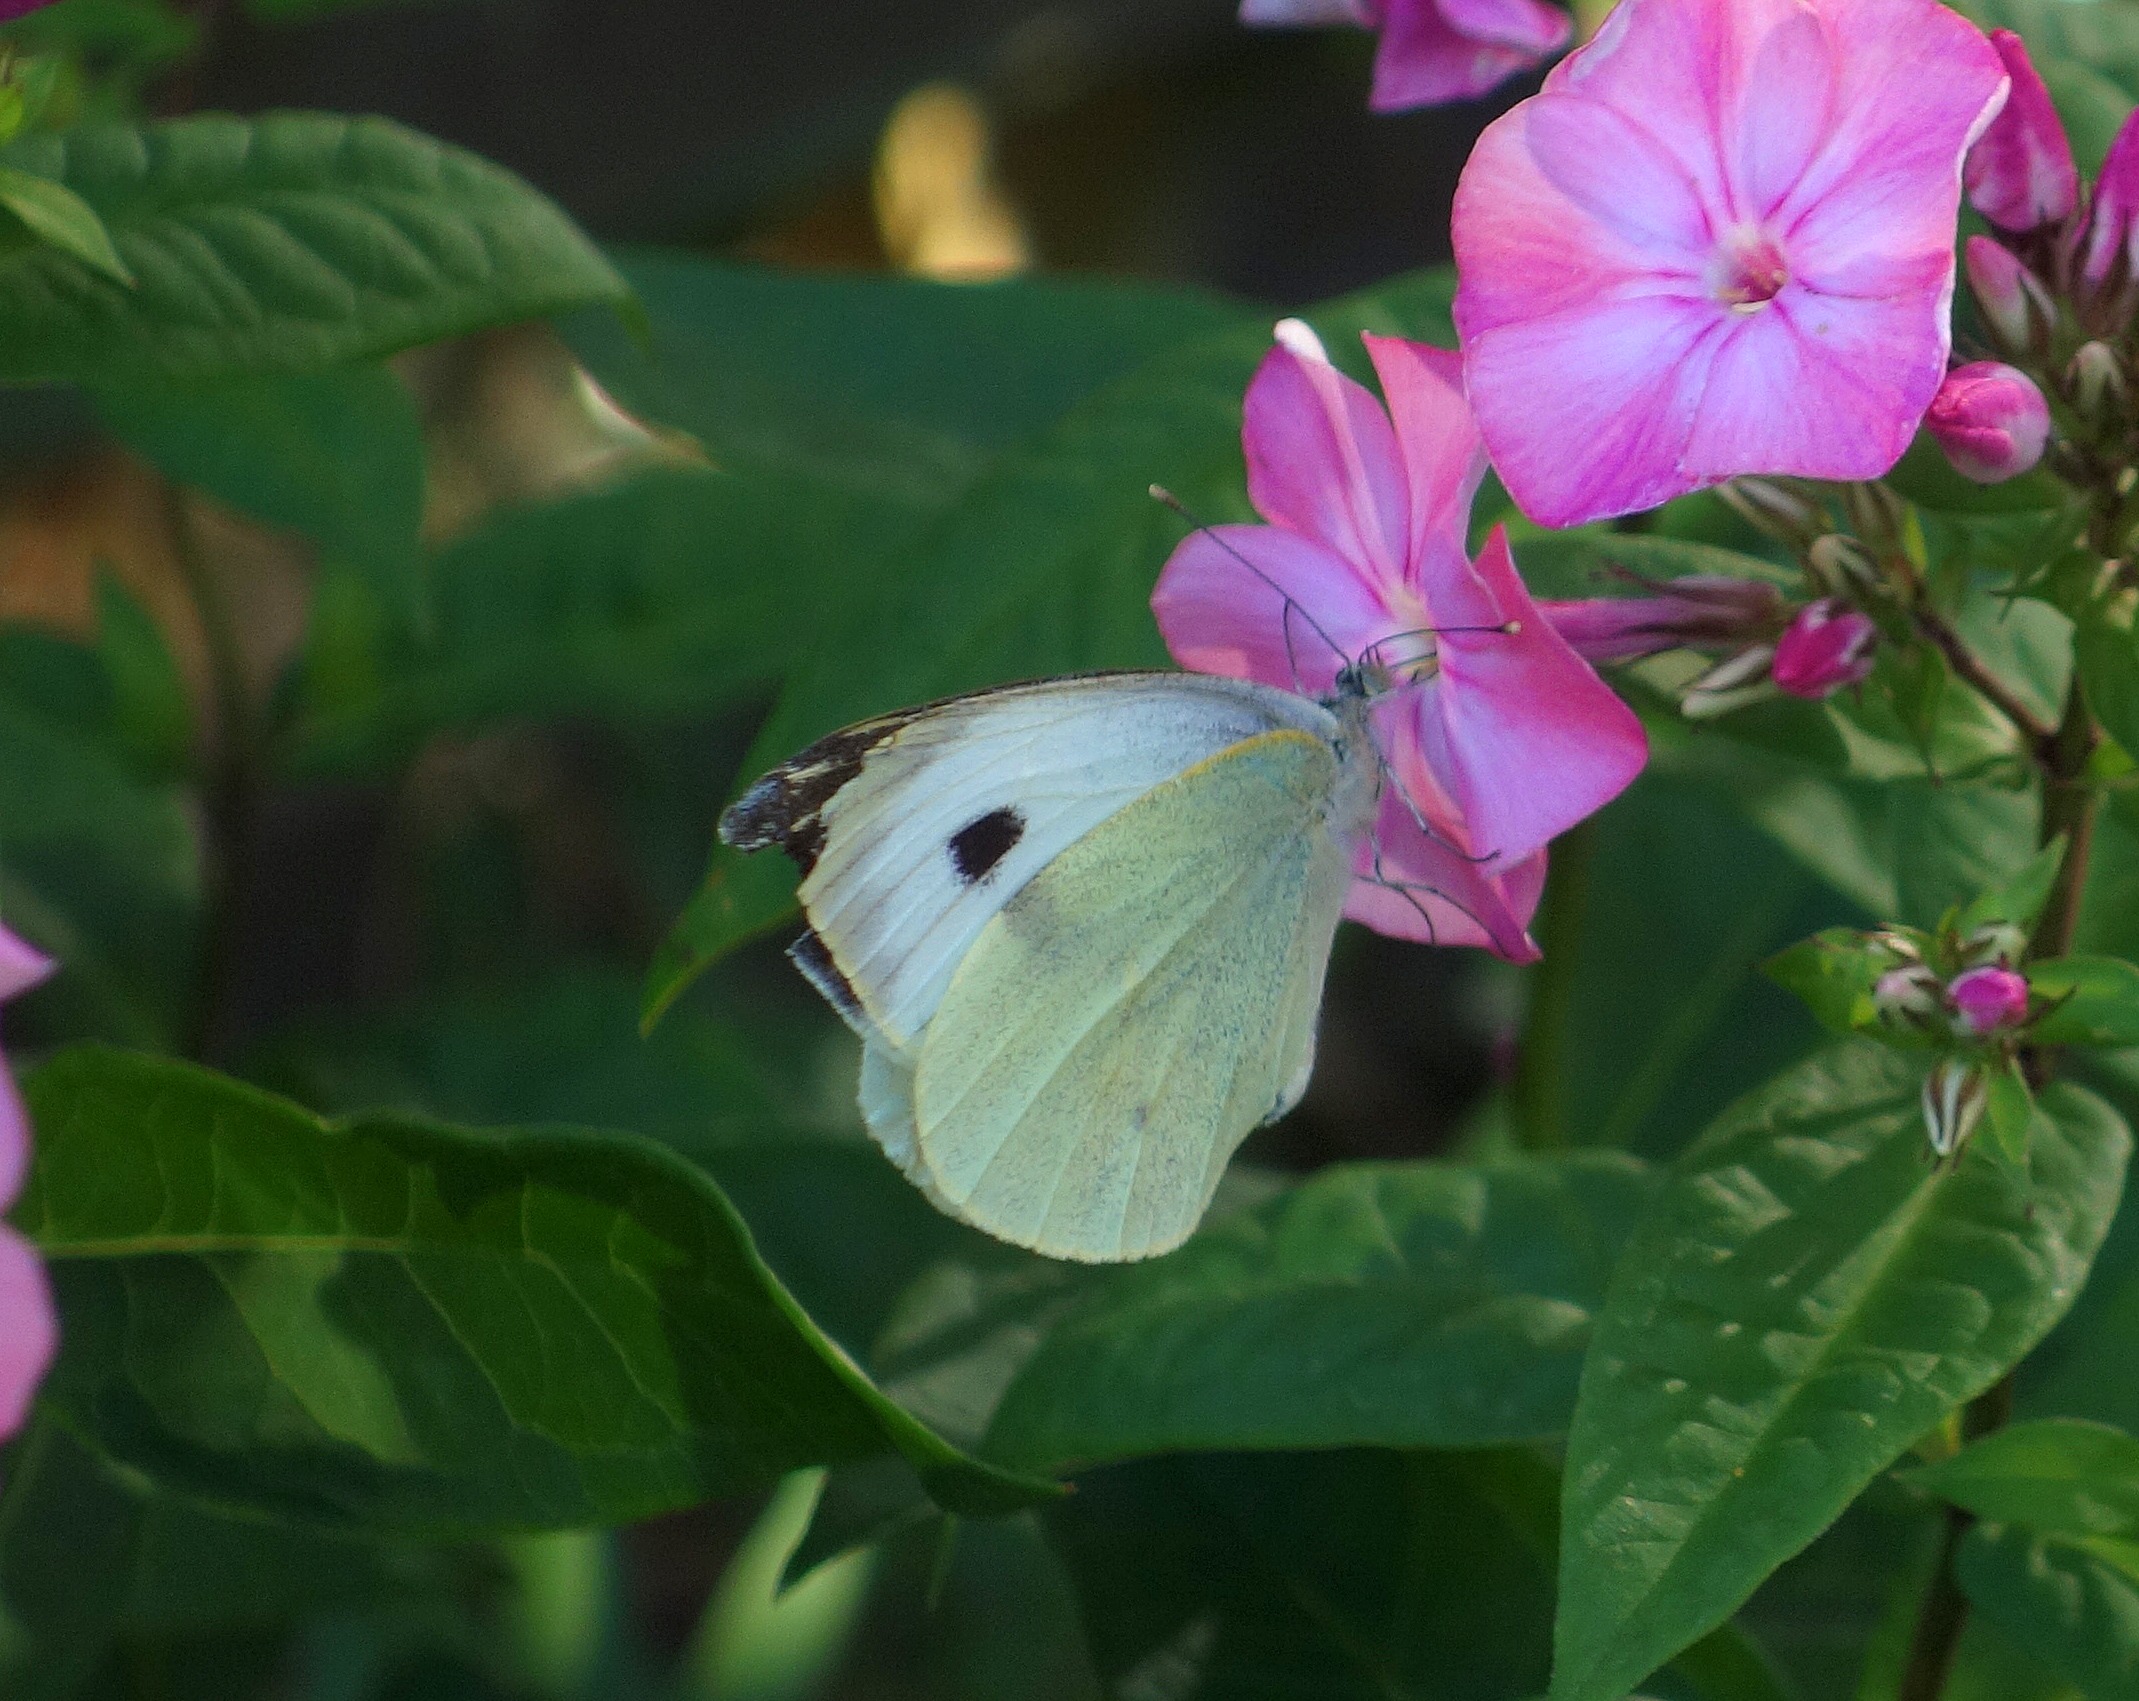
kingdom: Animalia
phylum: Arthropoda
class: Insecta
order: Lepidoptera
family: Pieridae
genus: Pieris
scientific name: Pieris brassicae
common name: Stor kålsommerfugl
